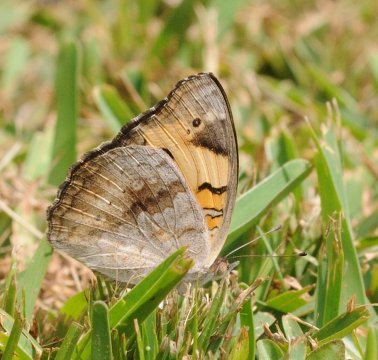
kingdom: Animalia
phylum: Arthropoda
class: Insecta
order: Lepidoptera
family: Nymphalidae
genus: Junonia
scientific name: Junonia hierta
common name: Yellow Pansy
